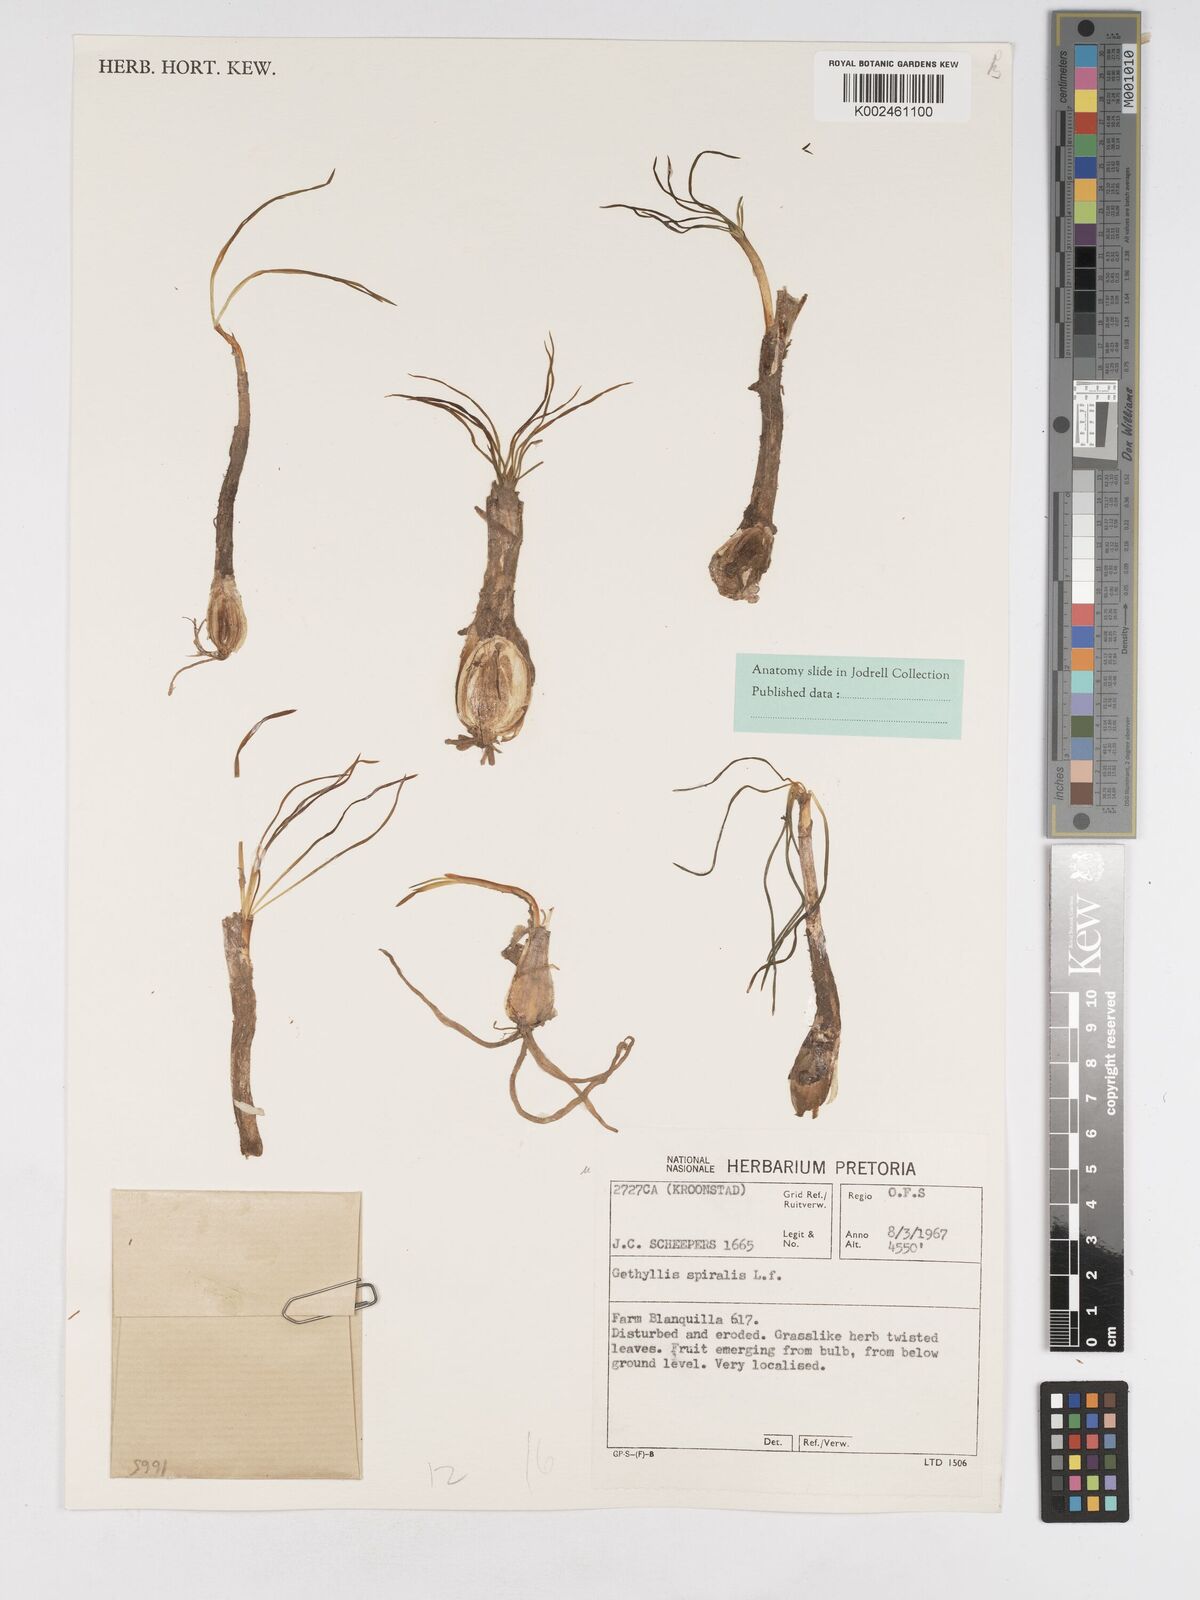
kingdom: Plantae
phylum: Tracheophyta
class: Liliopsida
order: Asparagales
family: Amaryllidaceae
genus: Gethyllis
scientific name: Gethyllis spiralis
